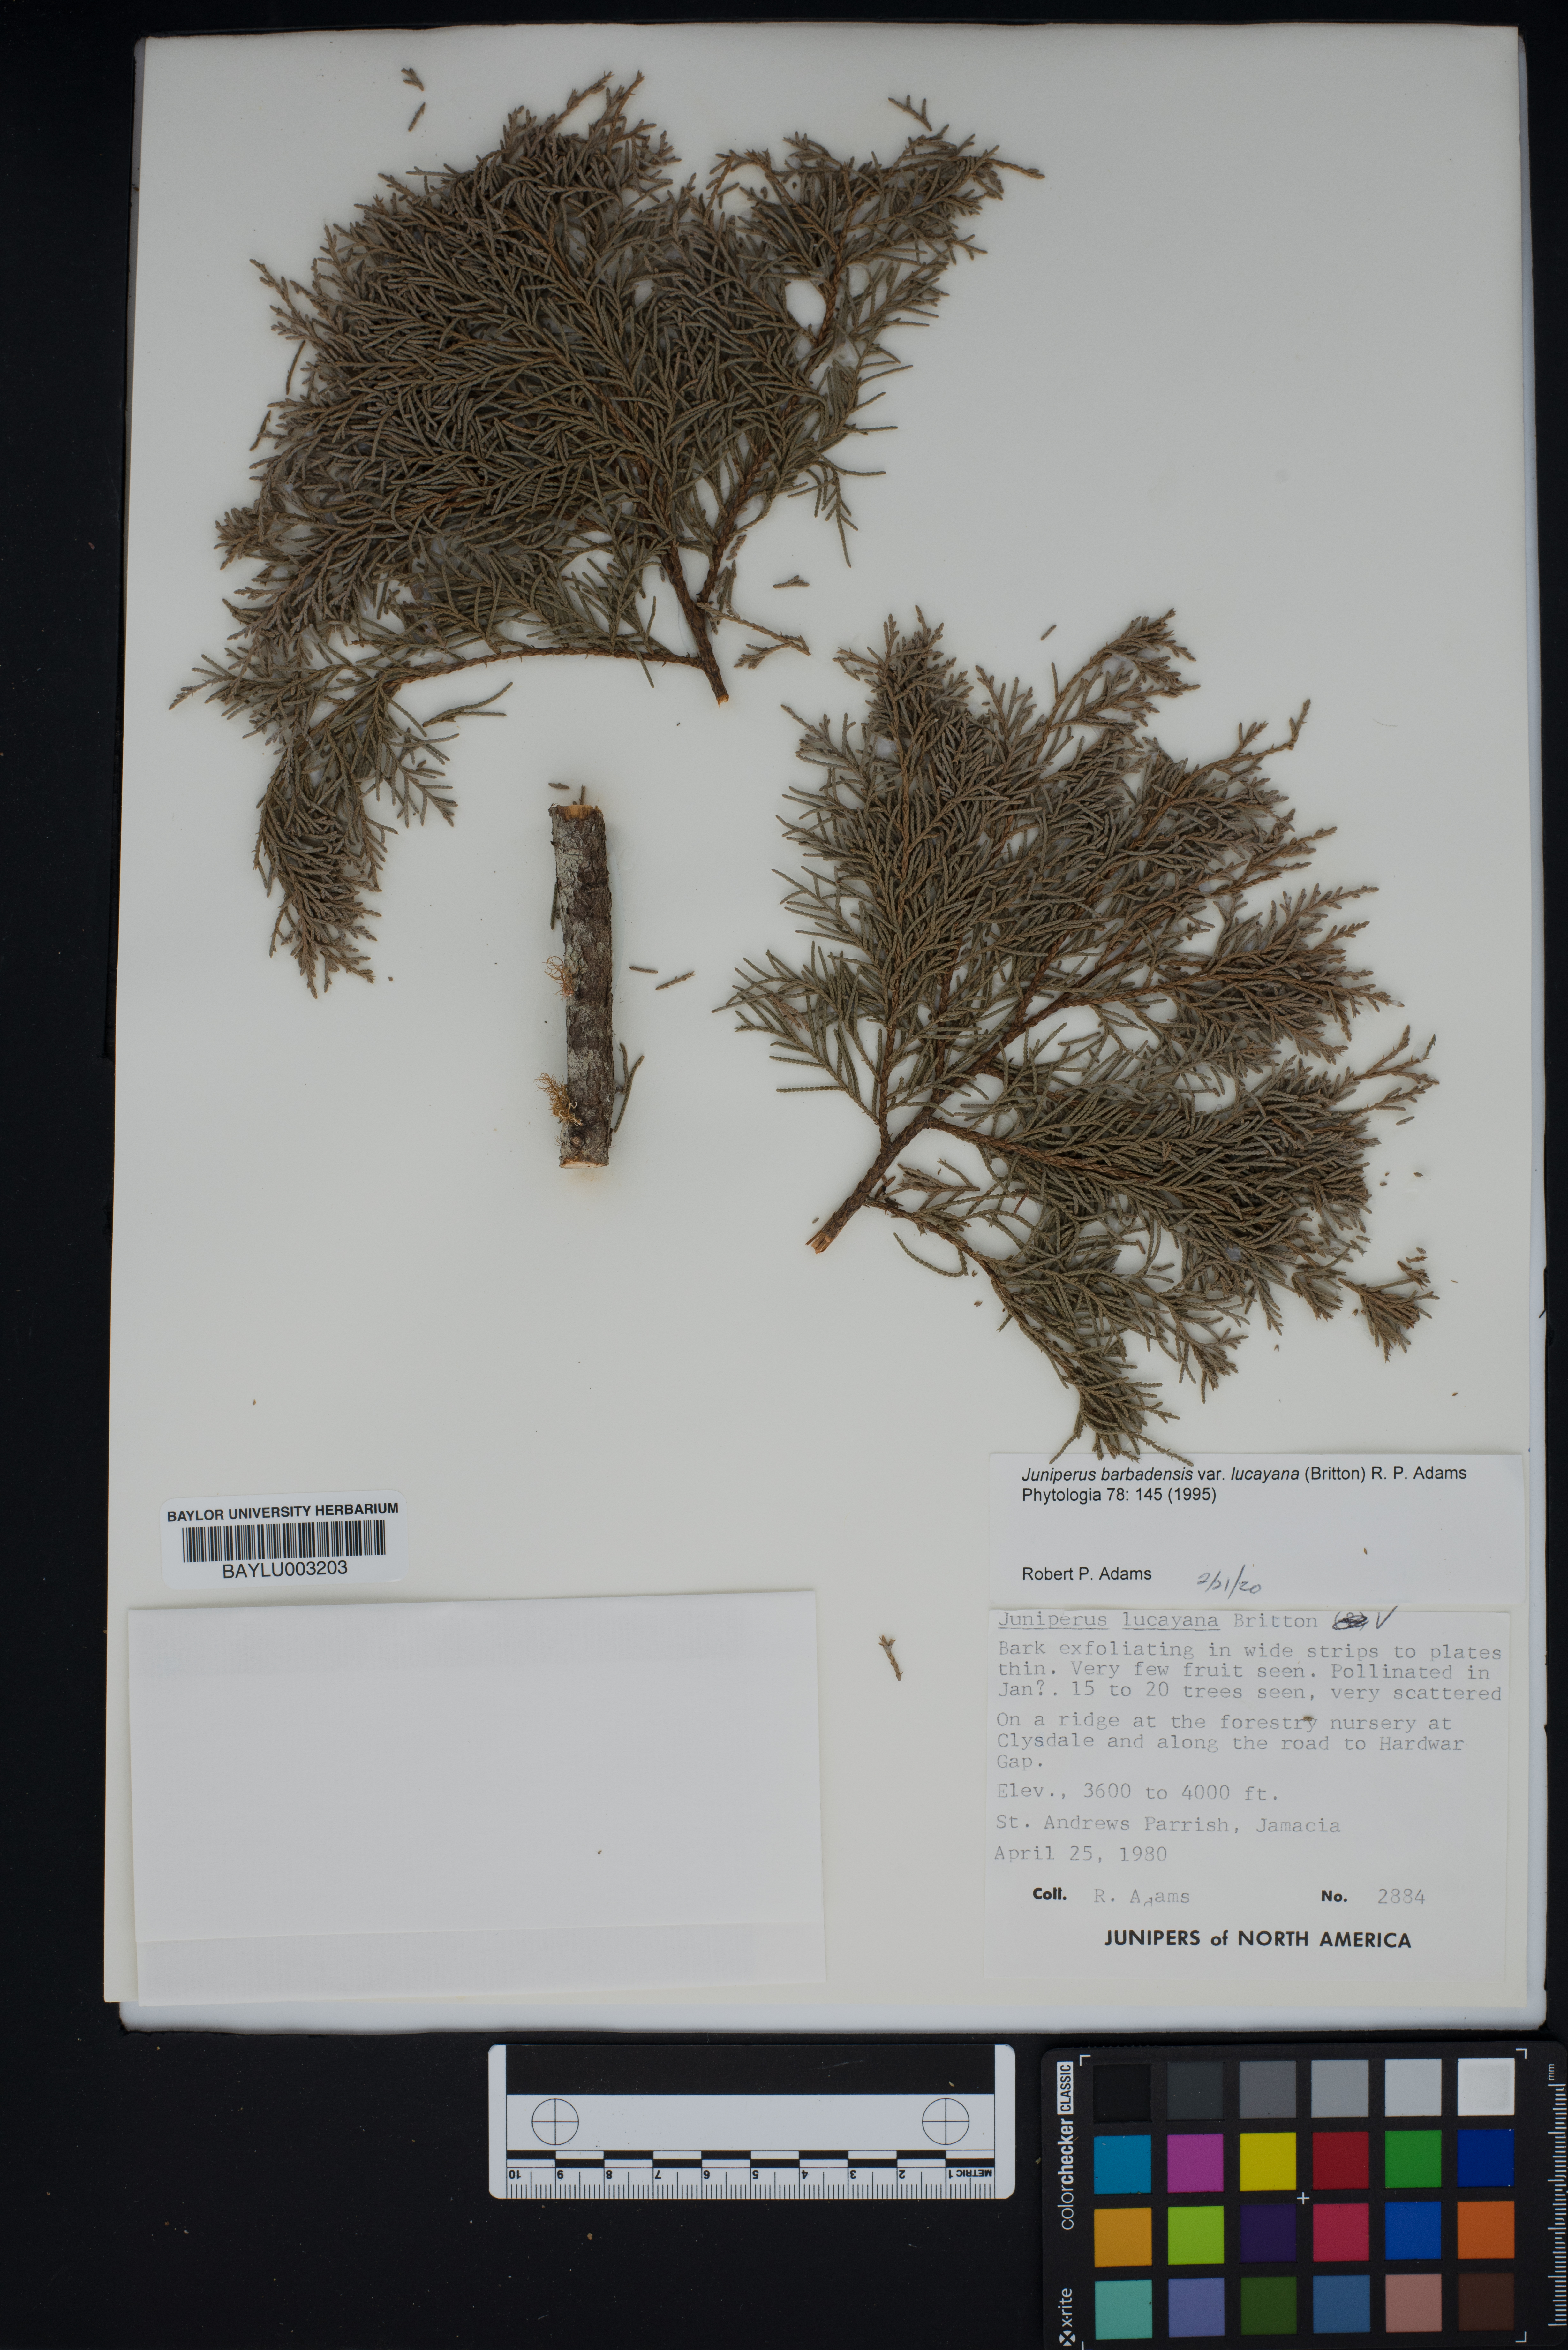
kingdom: Plantae
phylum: Tracheophyta
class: Pinopsida
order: Pinales
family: Cupressaceae
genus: Juniperus
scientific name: Juniperus barbadensis
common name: West indies juniper
